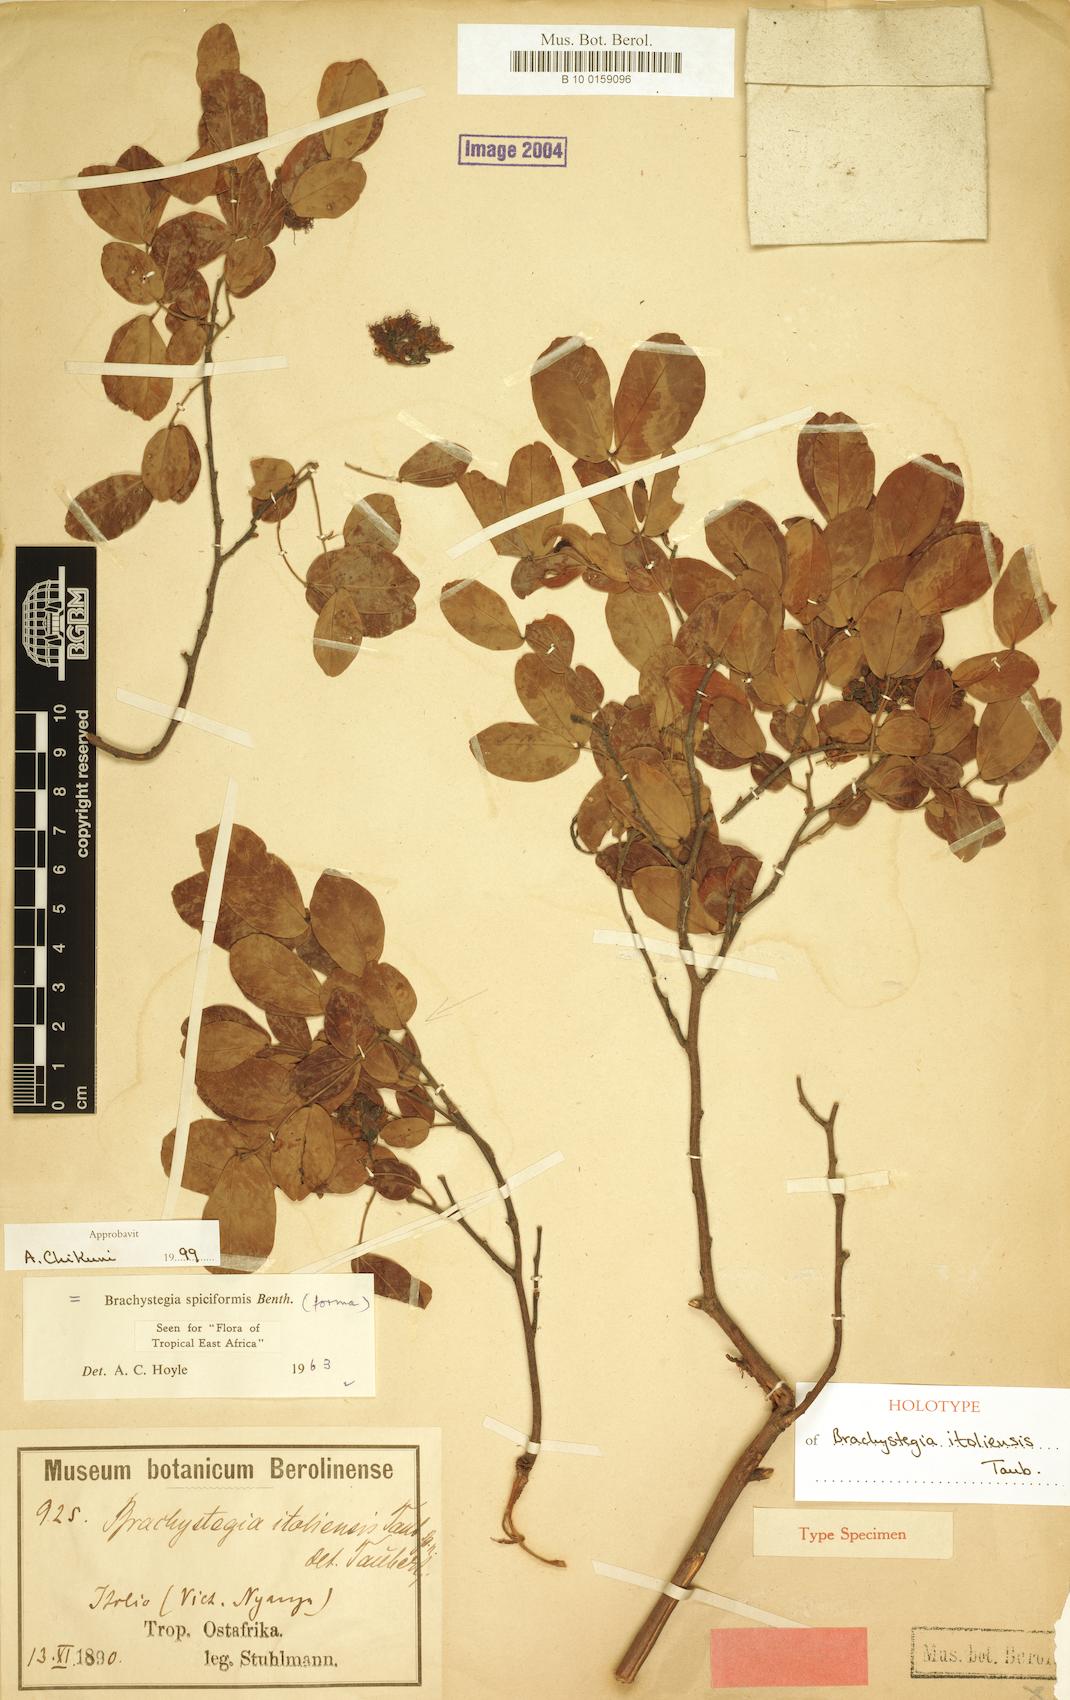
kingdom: Plantae
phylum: Tracheophyta
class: Magnoliopsida
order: Fabales
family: Fabaceae
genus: Brachystegia
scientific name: Brachystegia spiciformis
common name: Zebrawood
